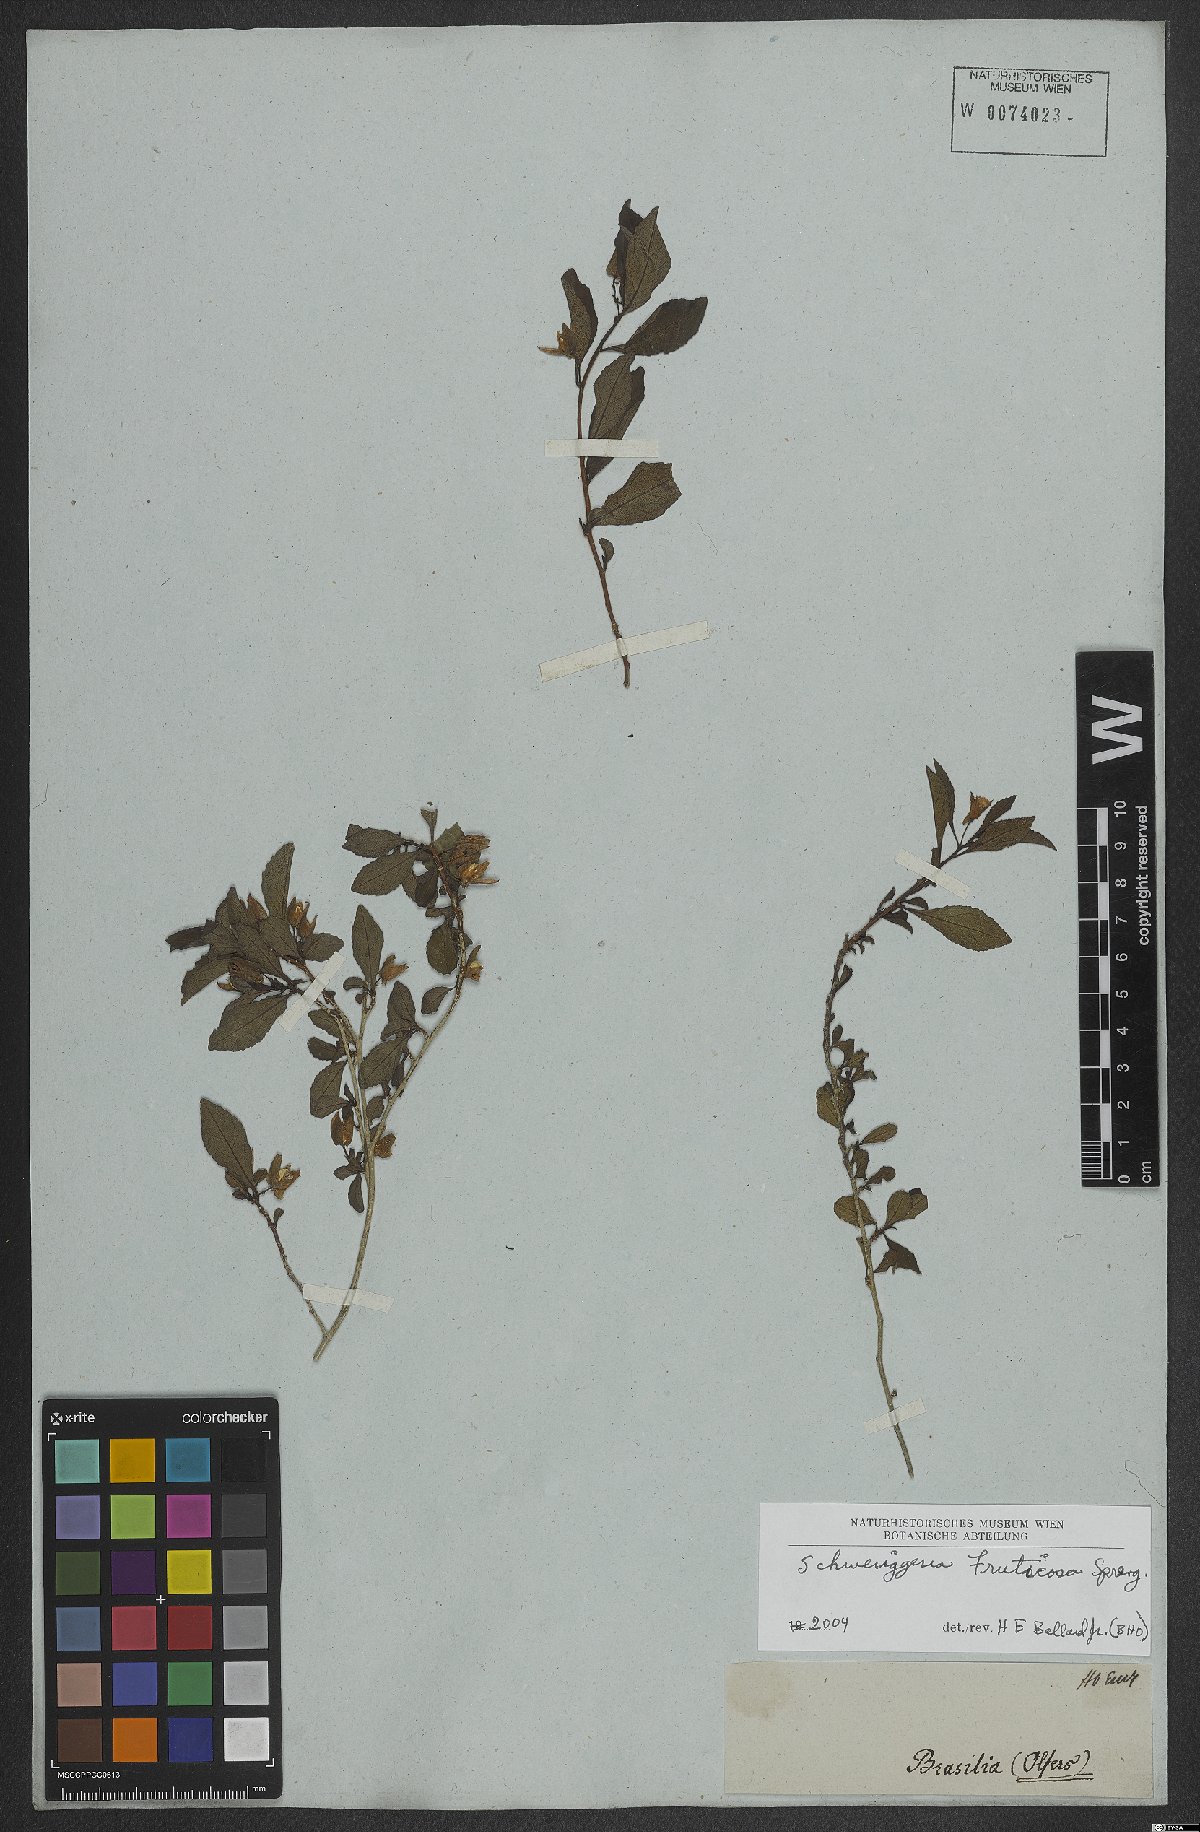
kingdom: Plantae
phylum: Tracheophyta
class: Magnoliopsida
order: Malpighiales
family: Violaceae
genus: Schweiggeria
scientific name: Schweiggeria fruticosa
